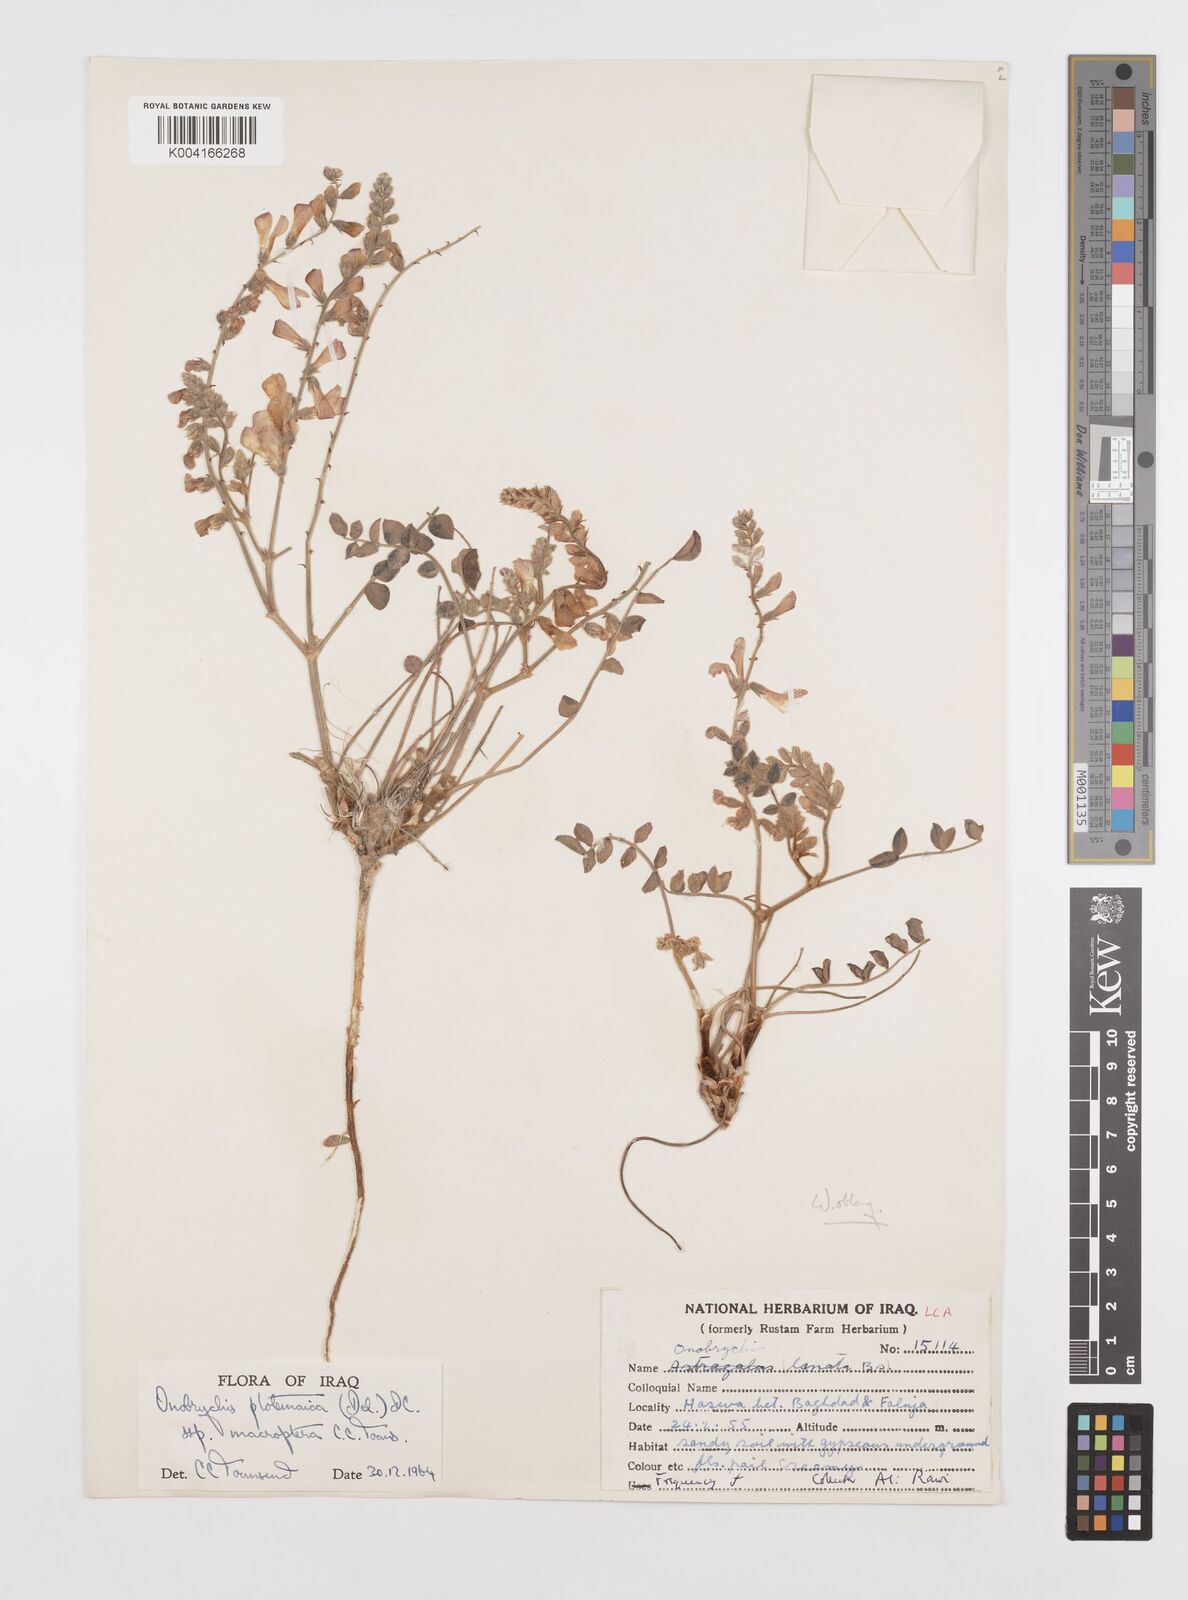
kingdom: Plantae
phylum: Tracheophyta
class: Magnoliopsida
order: Fabales
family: Fabaceae
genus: Onobrychis
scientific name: Onobrychis ptolemaica
